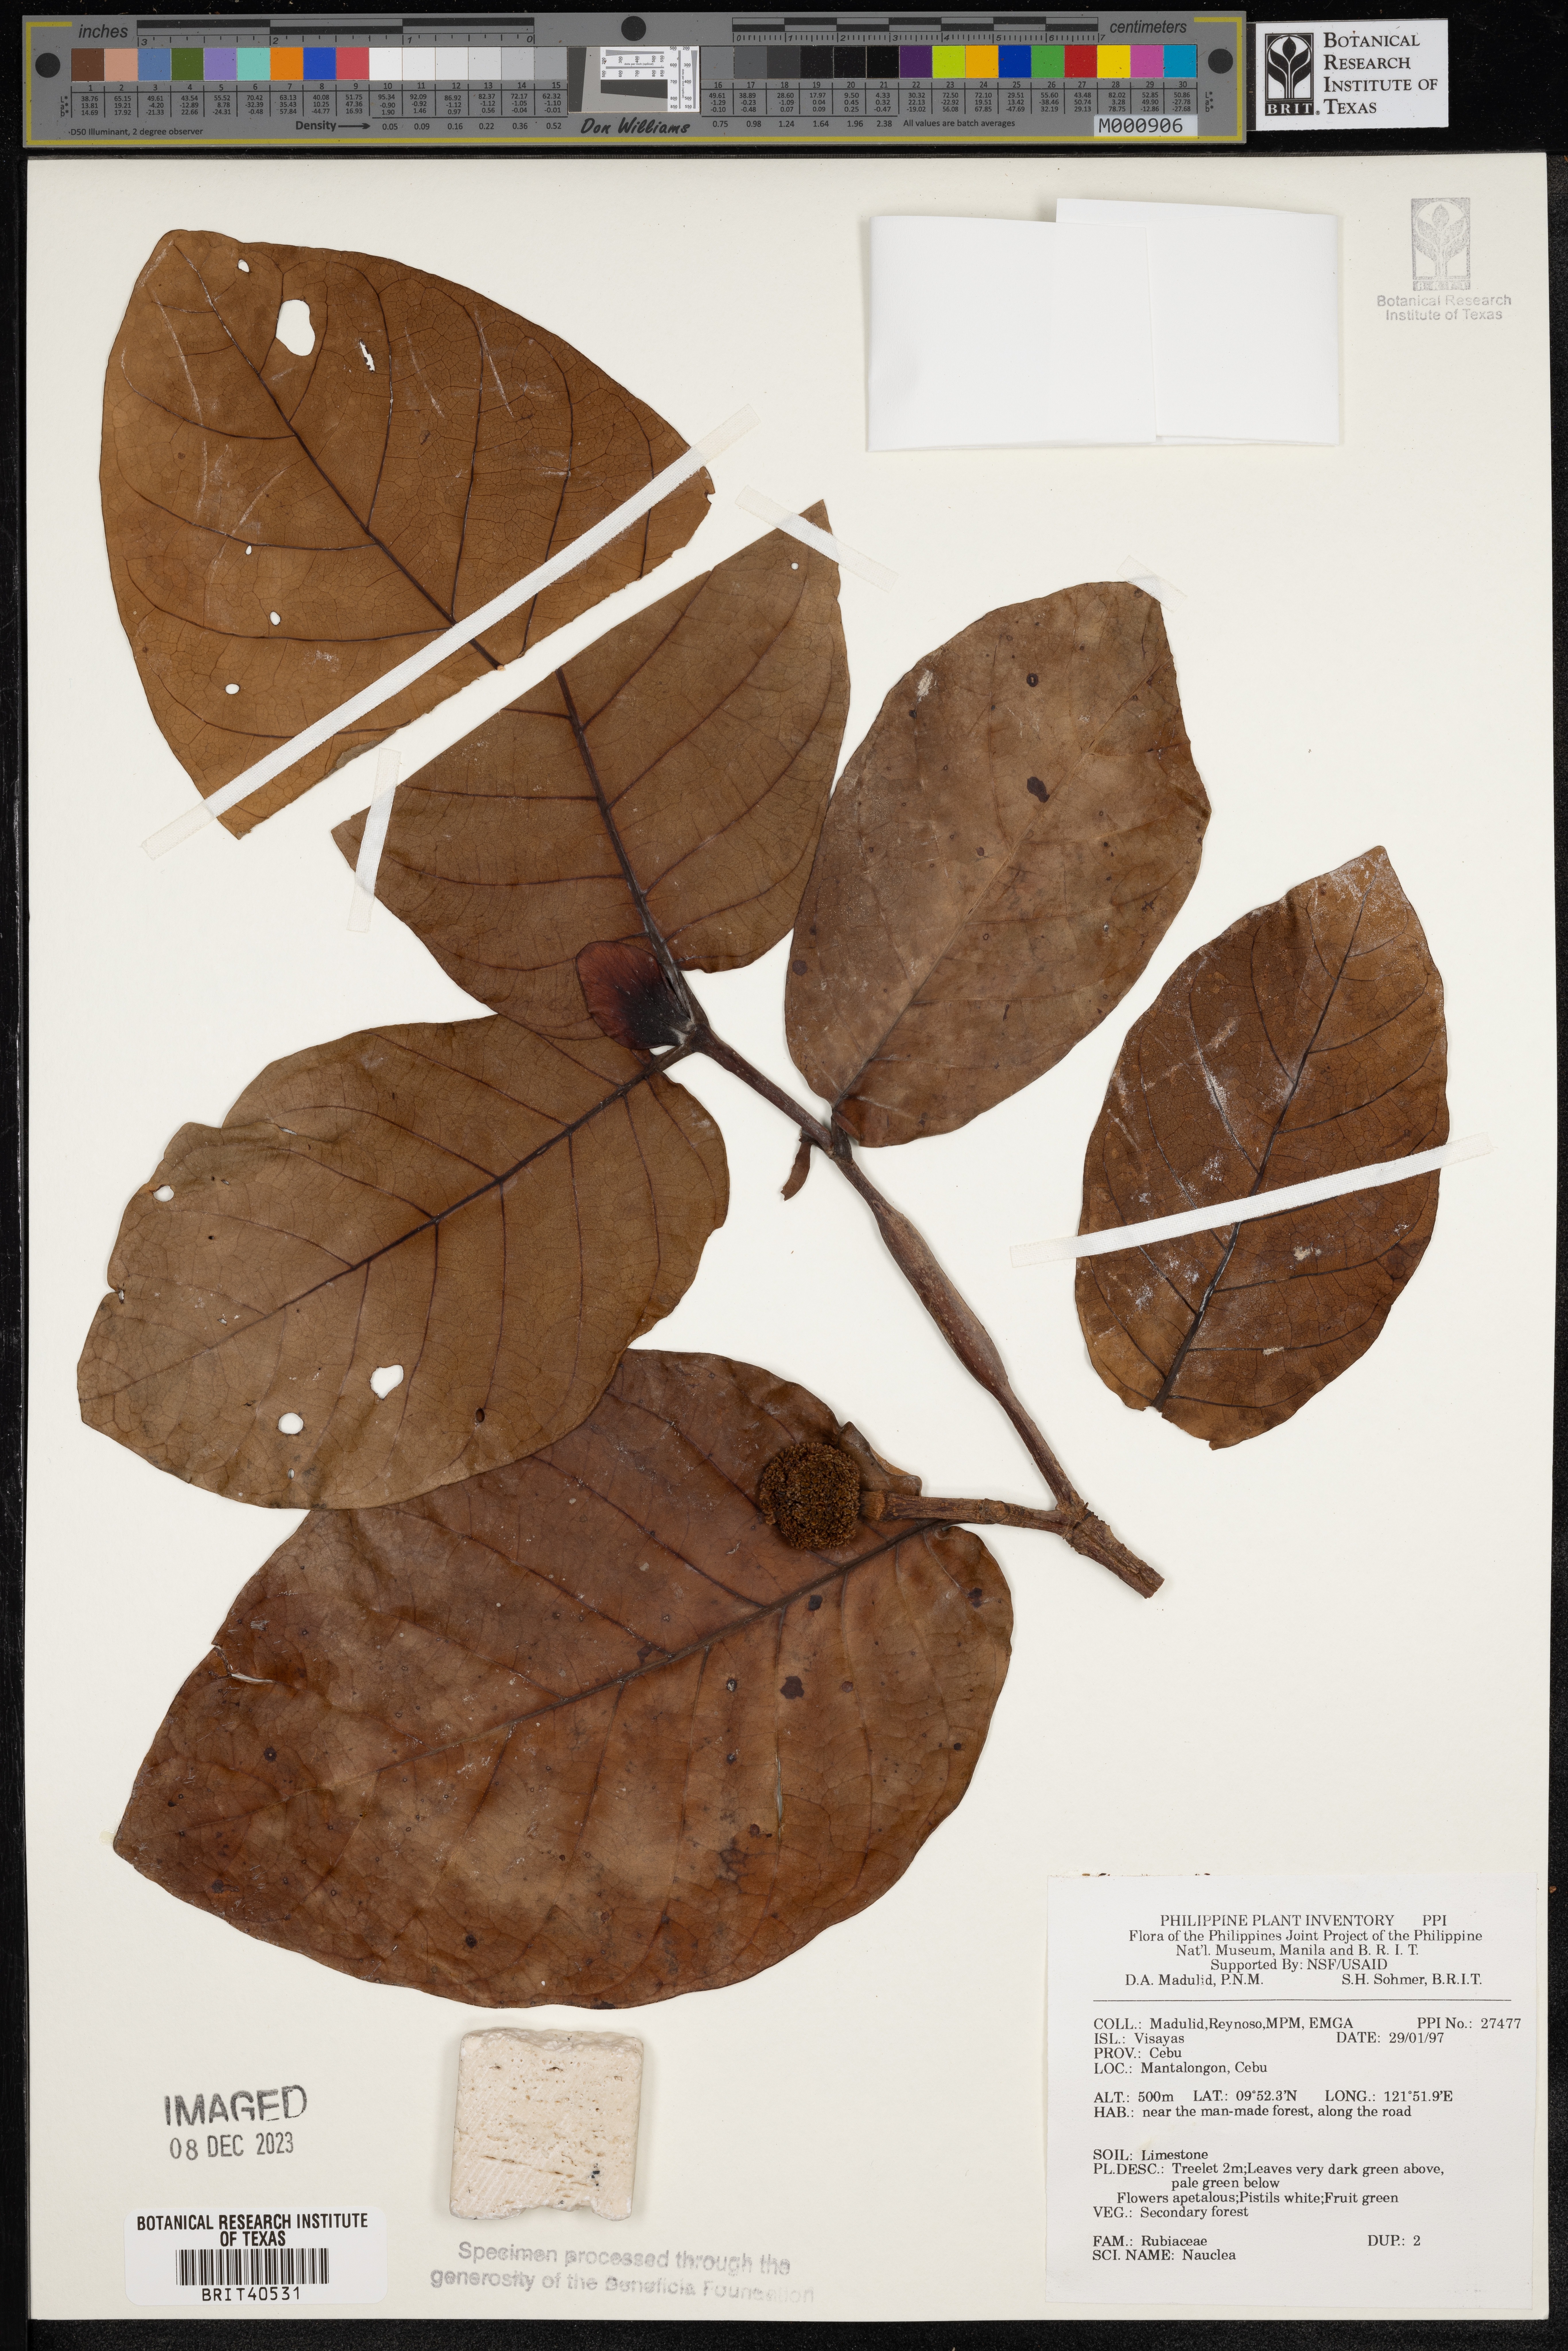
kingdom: Plantae
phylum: Tracheophyta
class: Magnoliopsida
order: Gentianales
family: Rubiaceae
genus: Nauclea
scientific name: Nauclea
